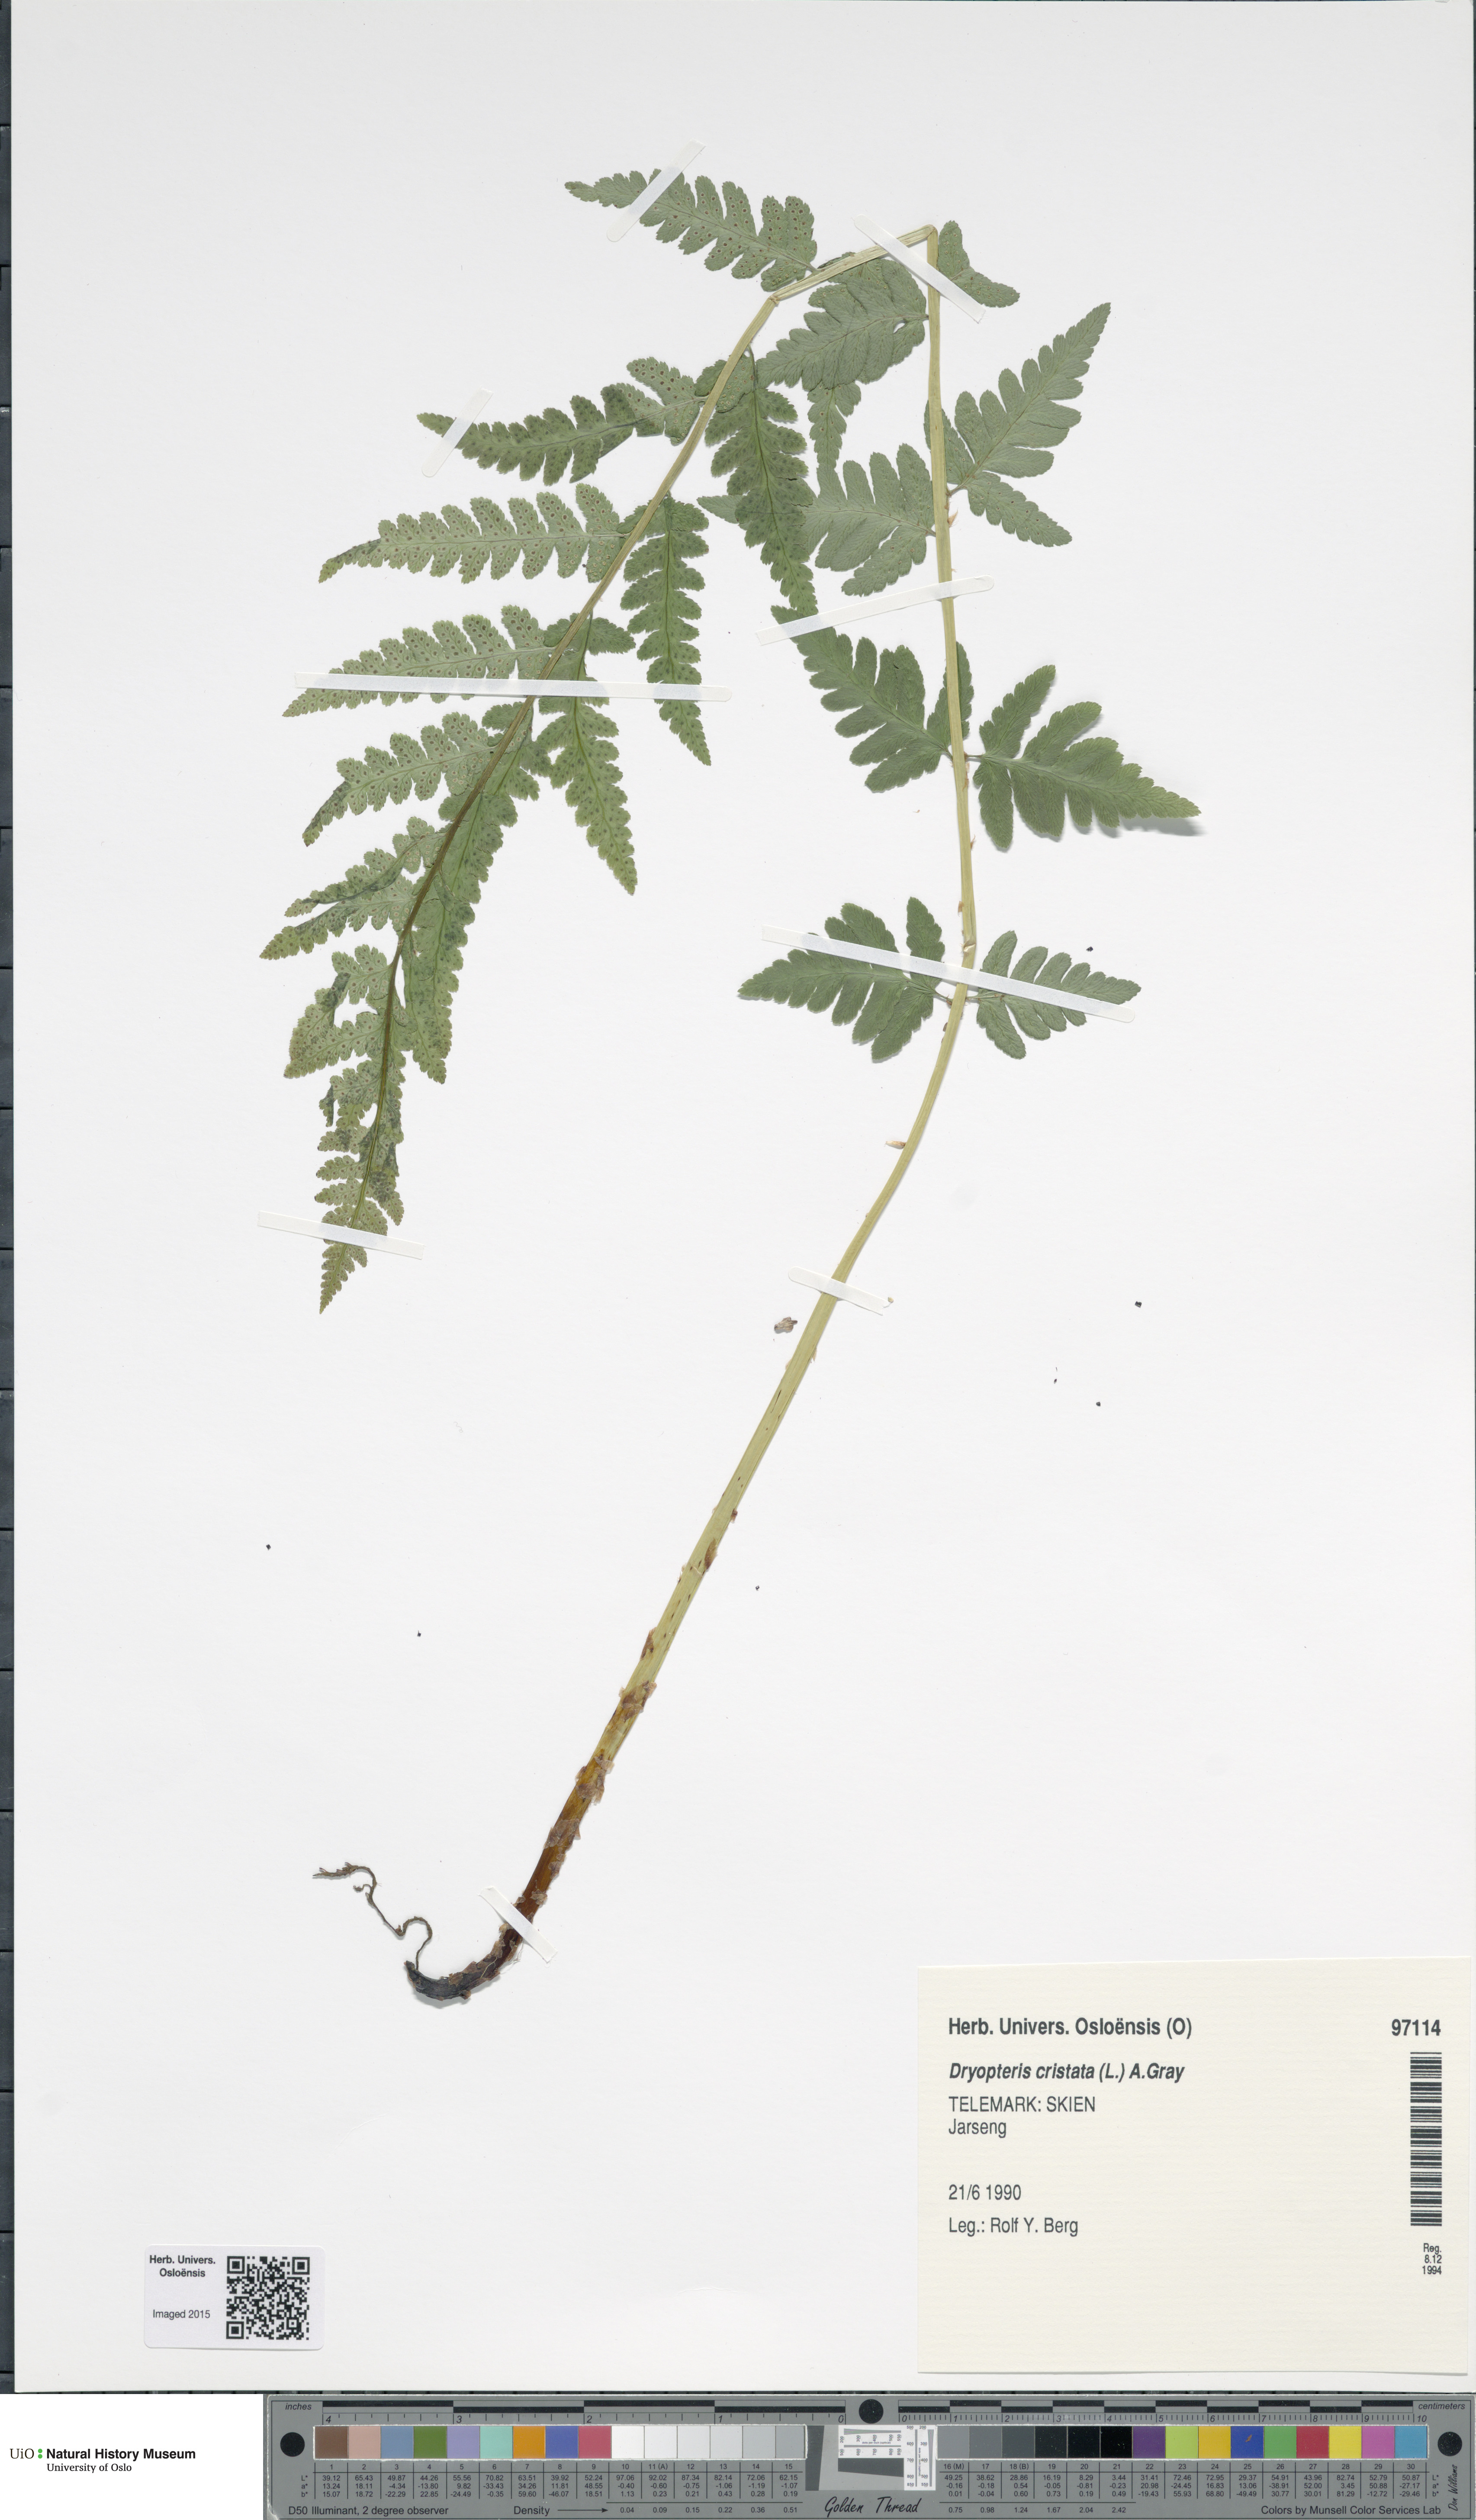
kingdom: Plantae
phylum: Tracheophyta
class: Polypodiopsida
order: Polypodiales
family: Dryopteridaceae
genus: Dryopteris
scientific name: Dryopteris cristata
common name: Crested wood fern
